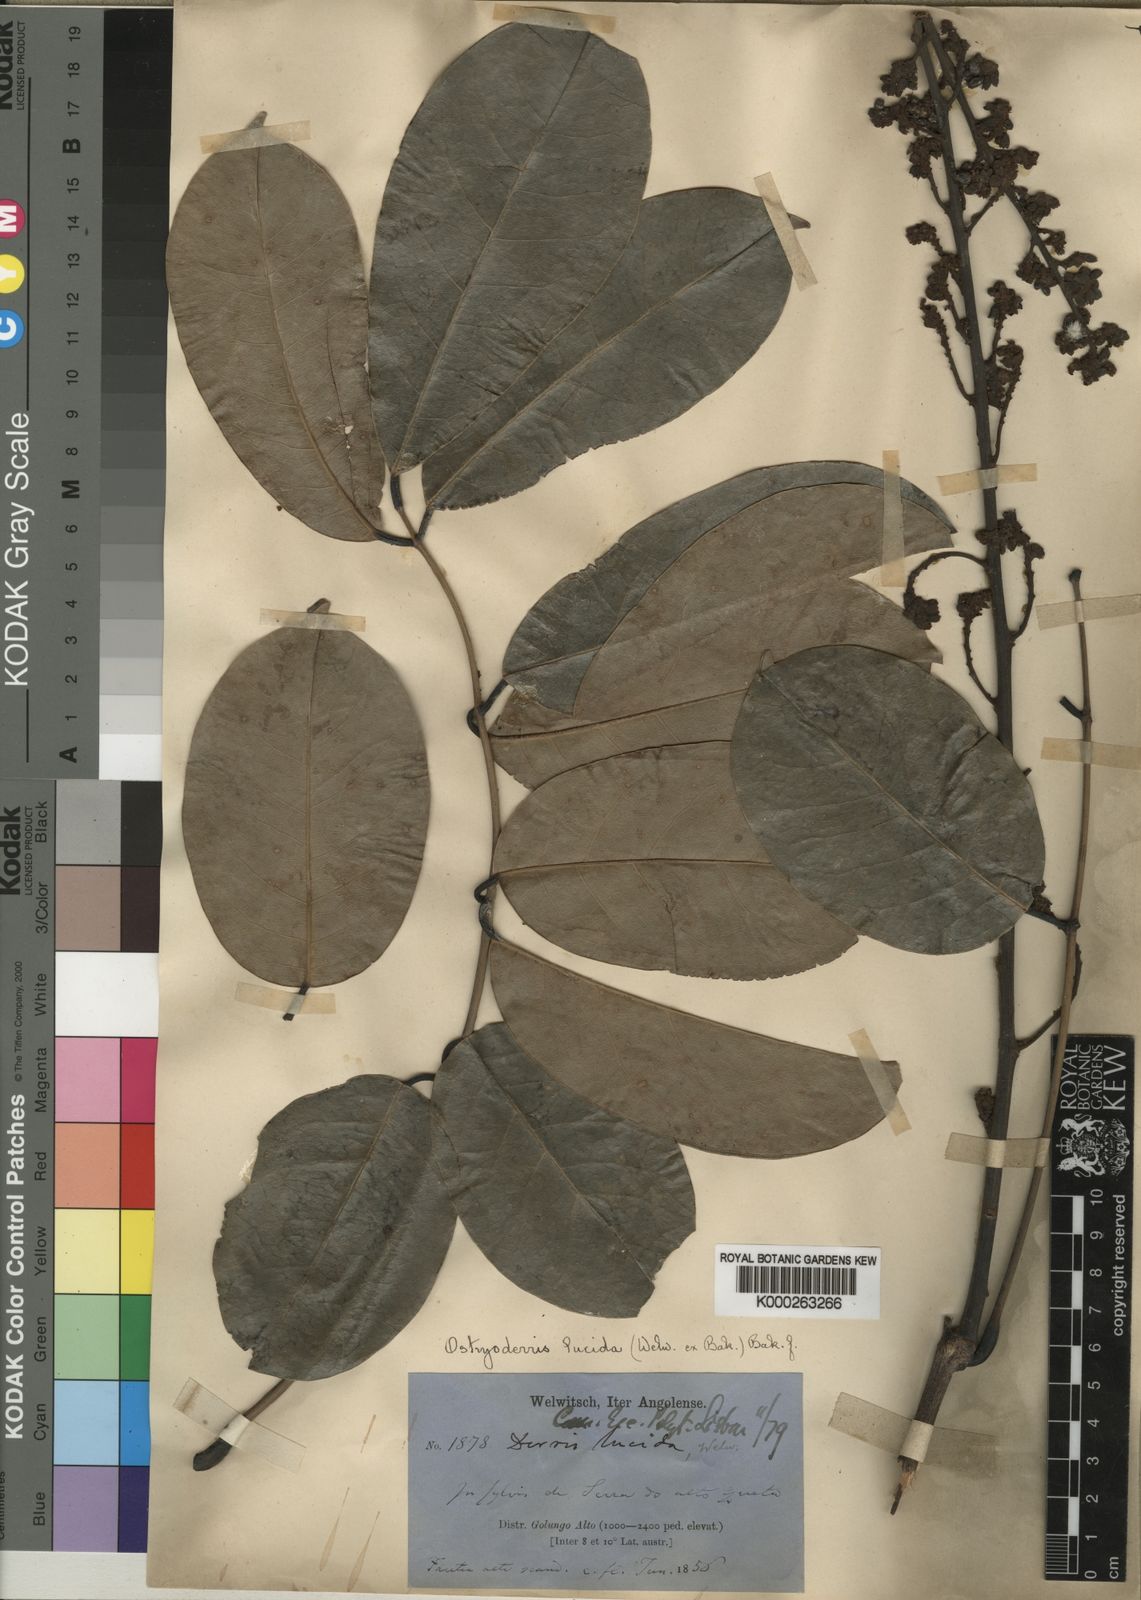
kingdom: Plantae
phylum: Tracheophyta
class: Magnoliopsida
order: Fabales
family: Fabaceae
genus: Aganope
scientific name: Aganope lucida
